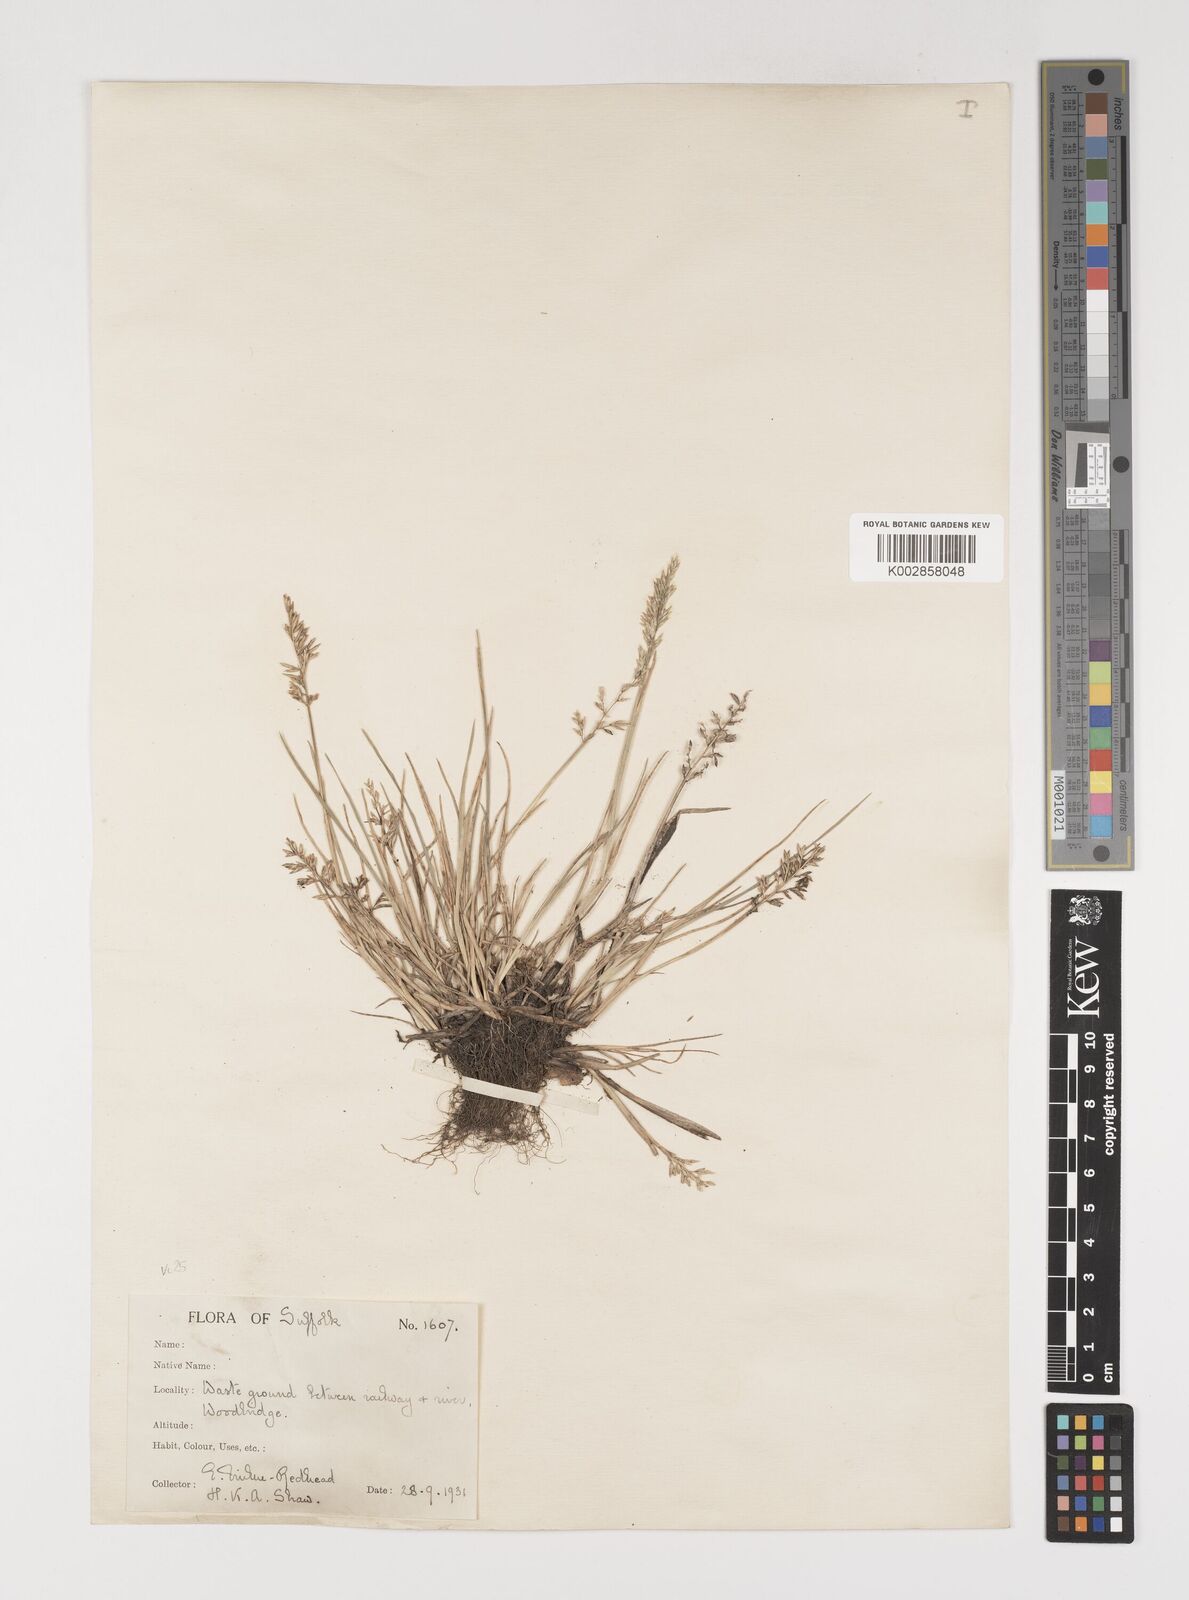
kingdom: Plantae
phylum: Tracheophyta
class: Liliopsida
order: Poales
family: Poaceae
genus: Puccinellia
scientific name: Puccinellia rupestris
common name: Stiff saltmarsh-grass
